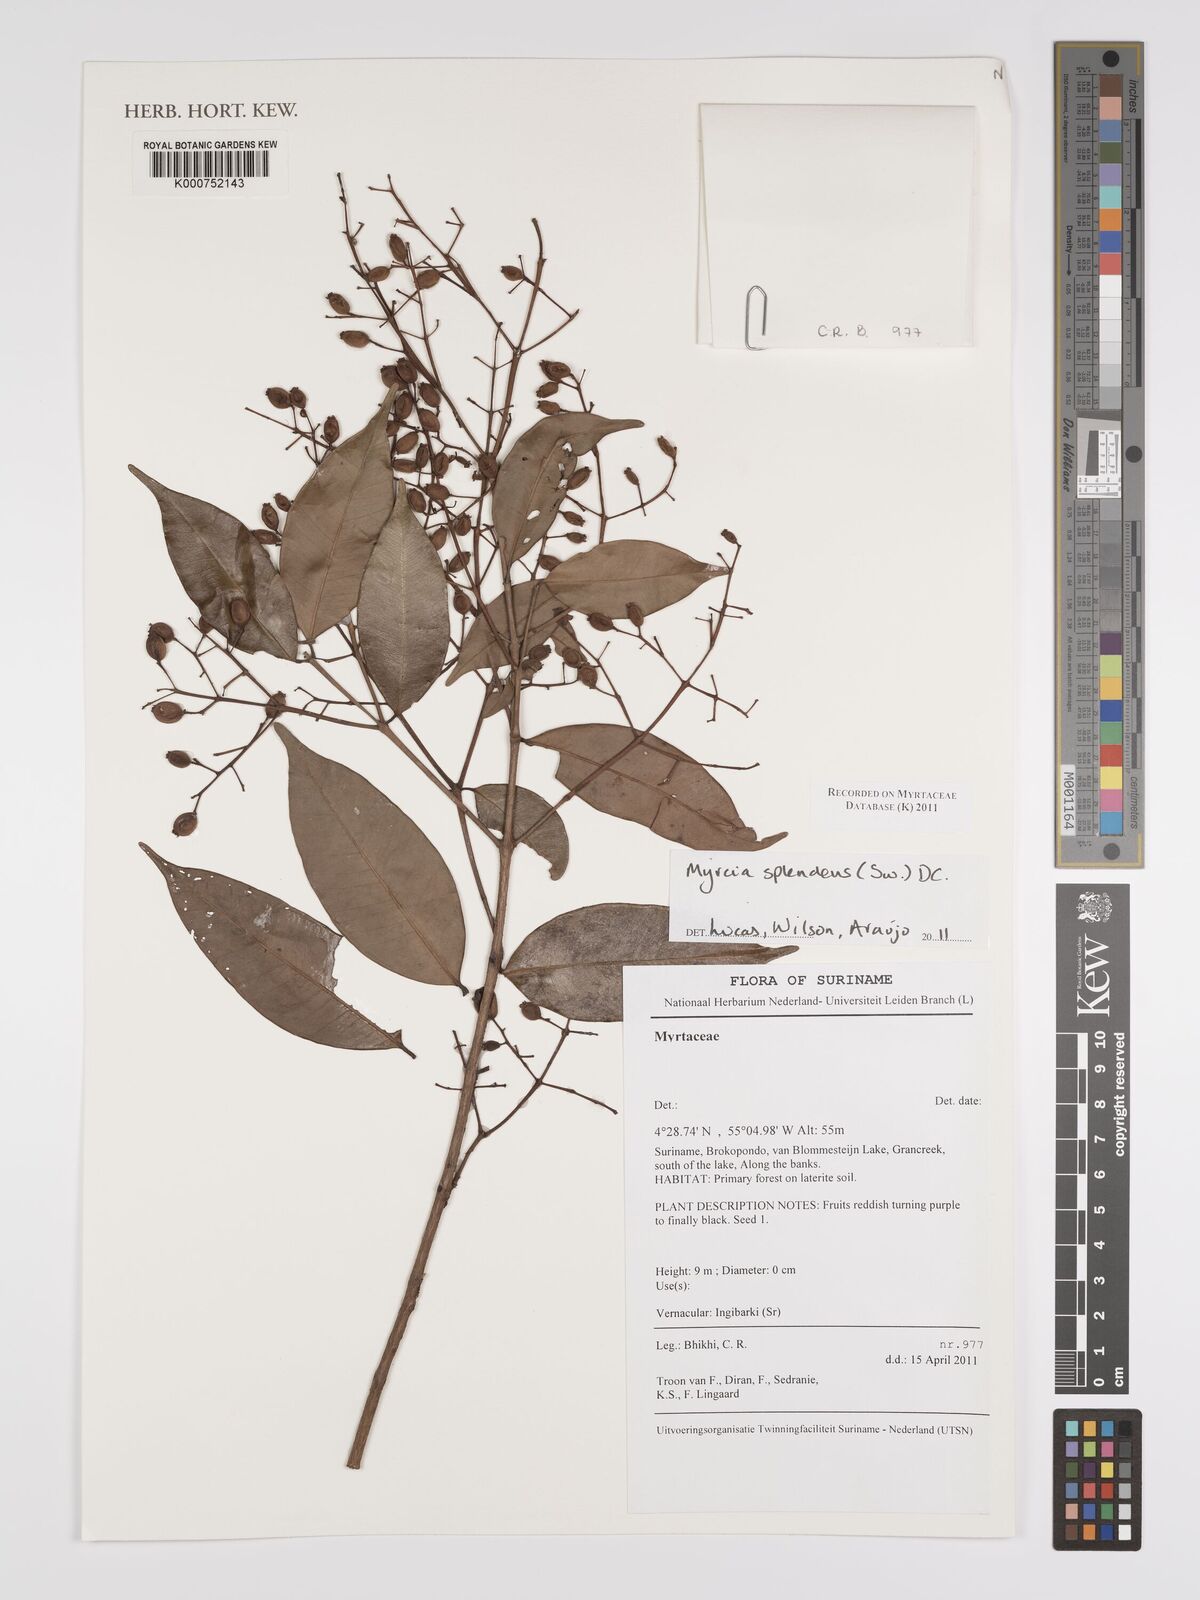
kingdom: Plantae
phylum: Tracheophyta
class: Magnoliopsida
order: Myrtales
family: Myrtaceae
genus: Myrcia
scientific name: Myrcia splendens
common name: Surinam cherry
